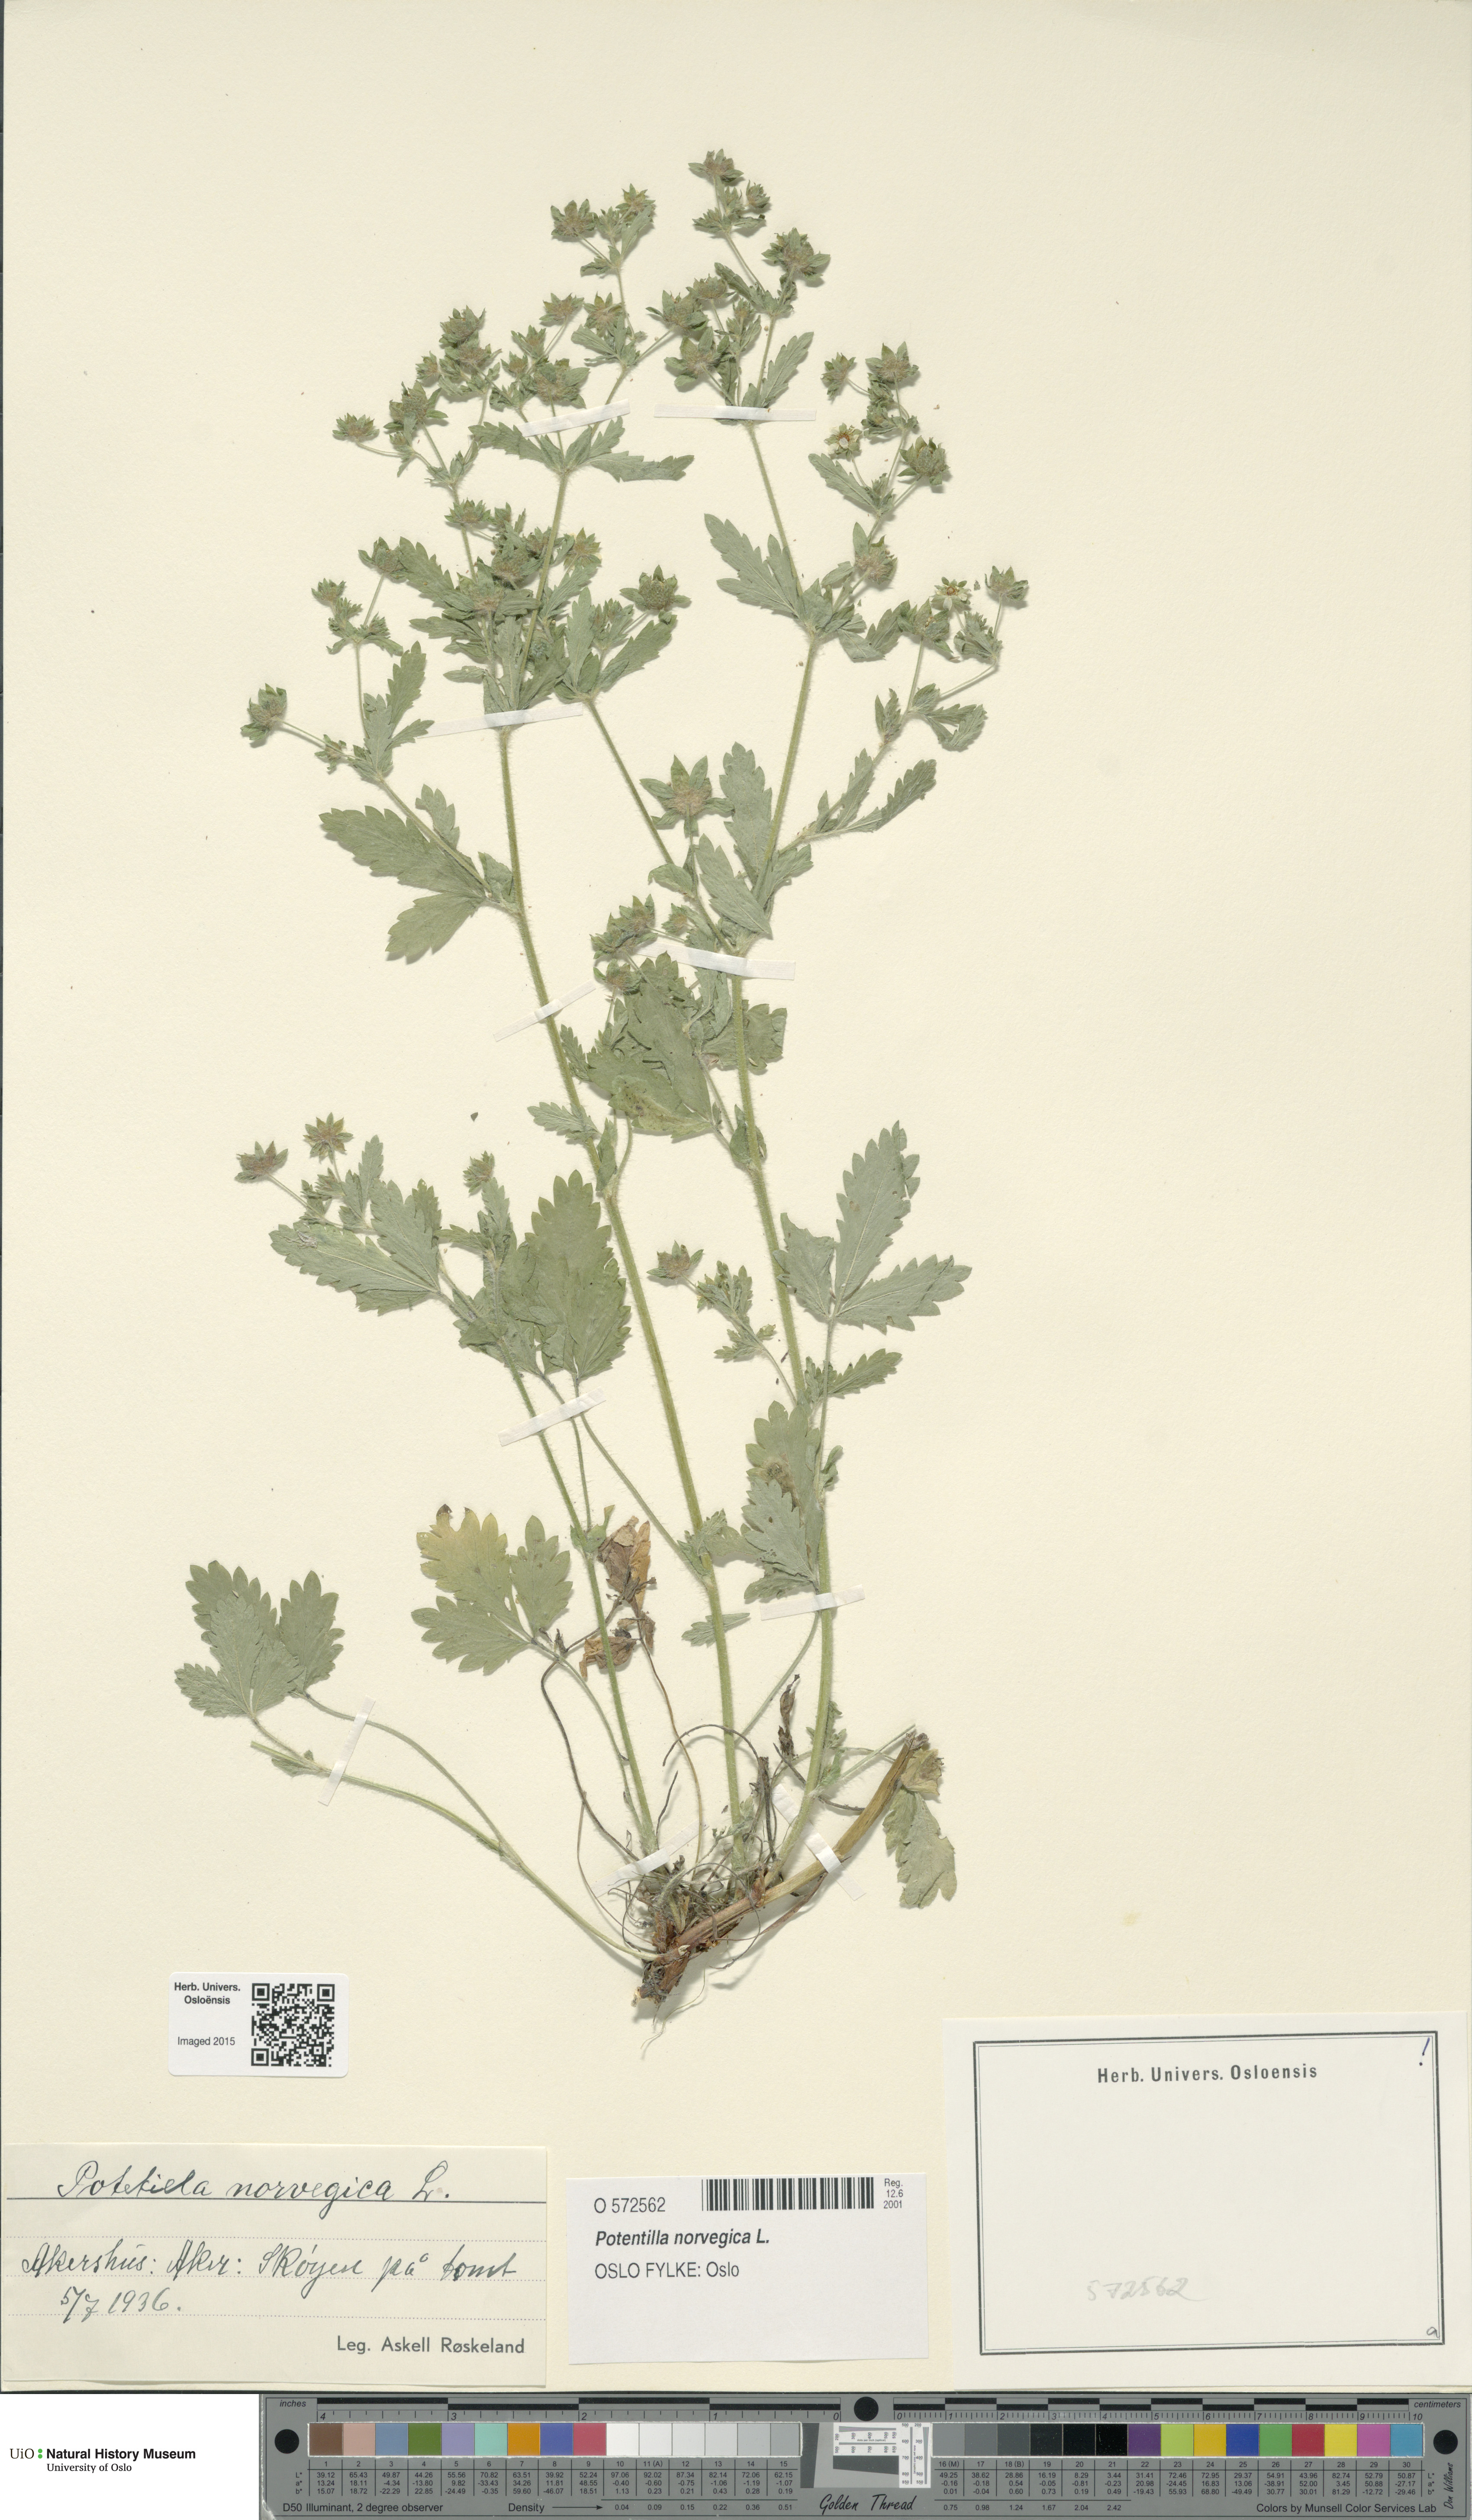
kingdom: Plantae
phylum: Tracheophyta
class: Magnoliopsida
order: Rosales
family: Rosaceae
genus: Potentilla
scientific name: Potentilla norvegica
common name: Ternate-leaved cinquefoil
